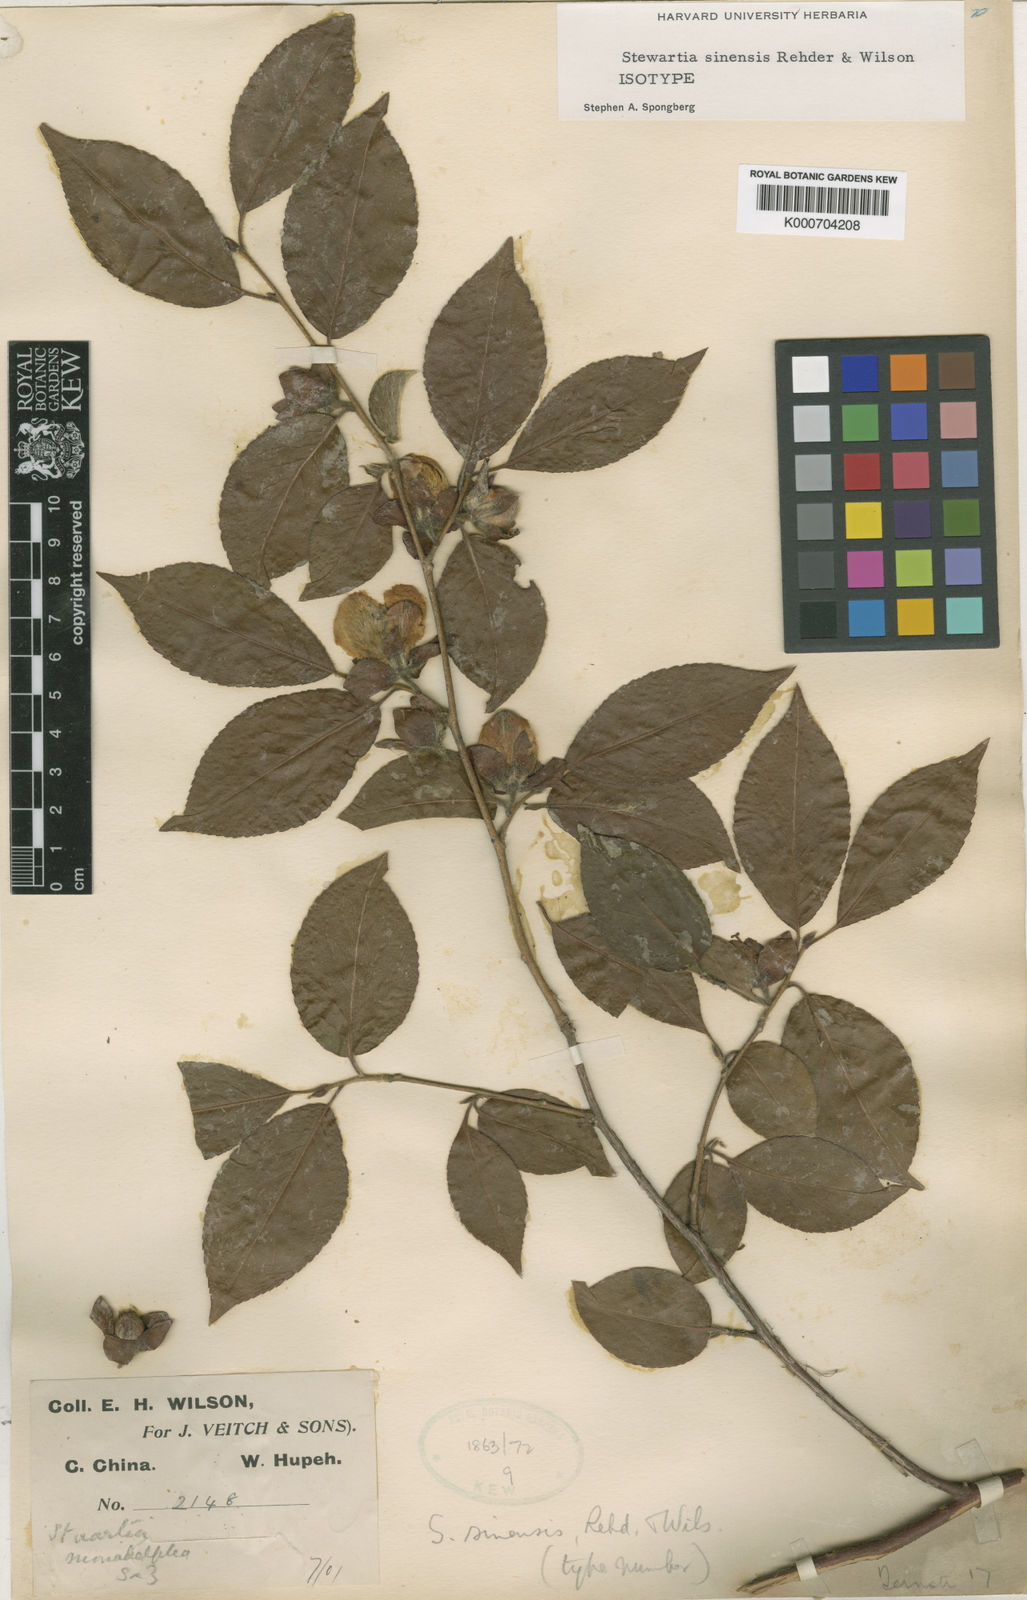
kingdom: Plantae
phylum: Tracheophyta
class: Magnoliopsida
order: Ericales
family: Theaceae
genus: Stewartia
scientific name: Stewartia sinensis
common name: Chinese stewartia
